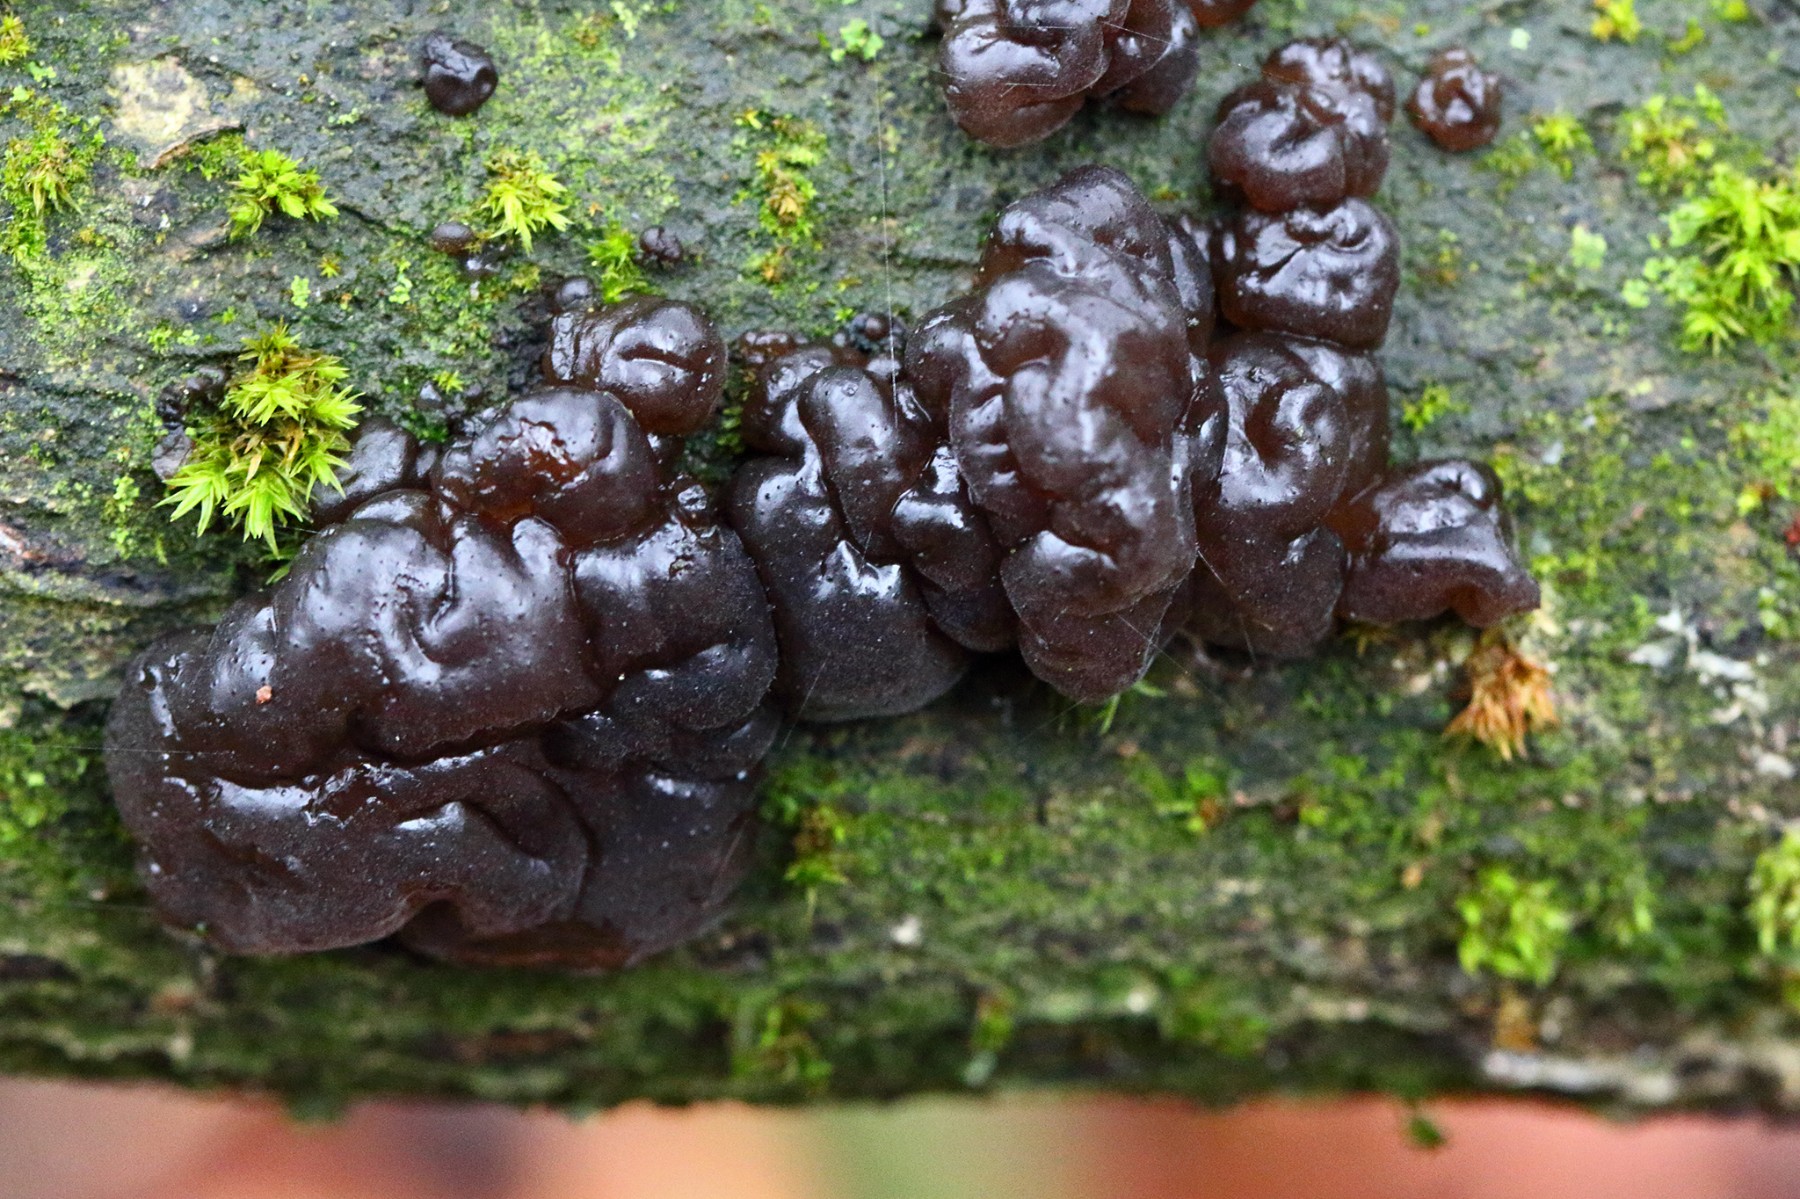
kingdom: Fungi
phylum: Basidiomycota
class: Agaricomycetes
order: Auriculariales
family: Auriculariaceae
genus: Exidia
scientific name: Exidia nigricans
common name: almindelig bævretop
